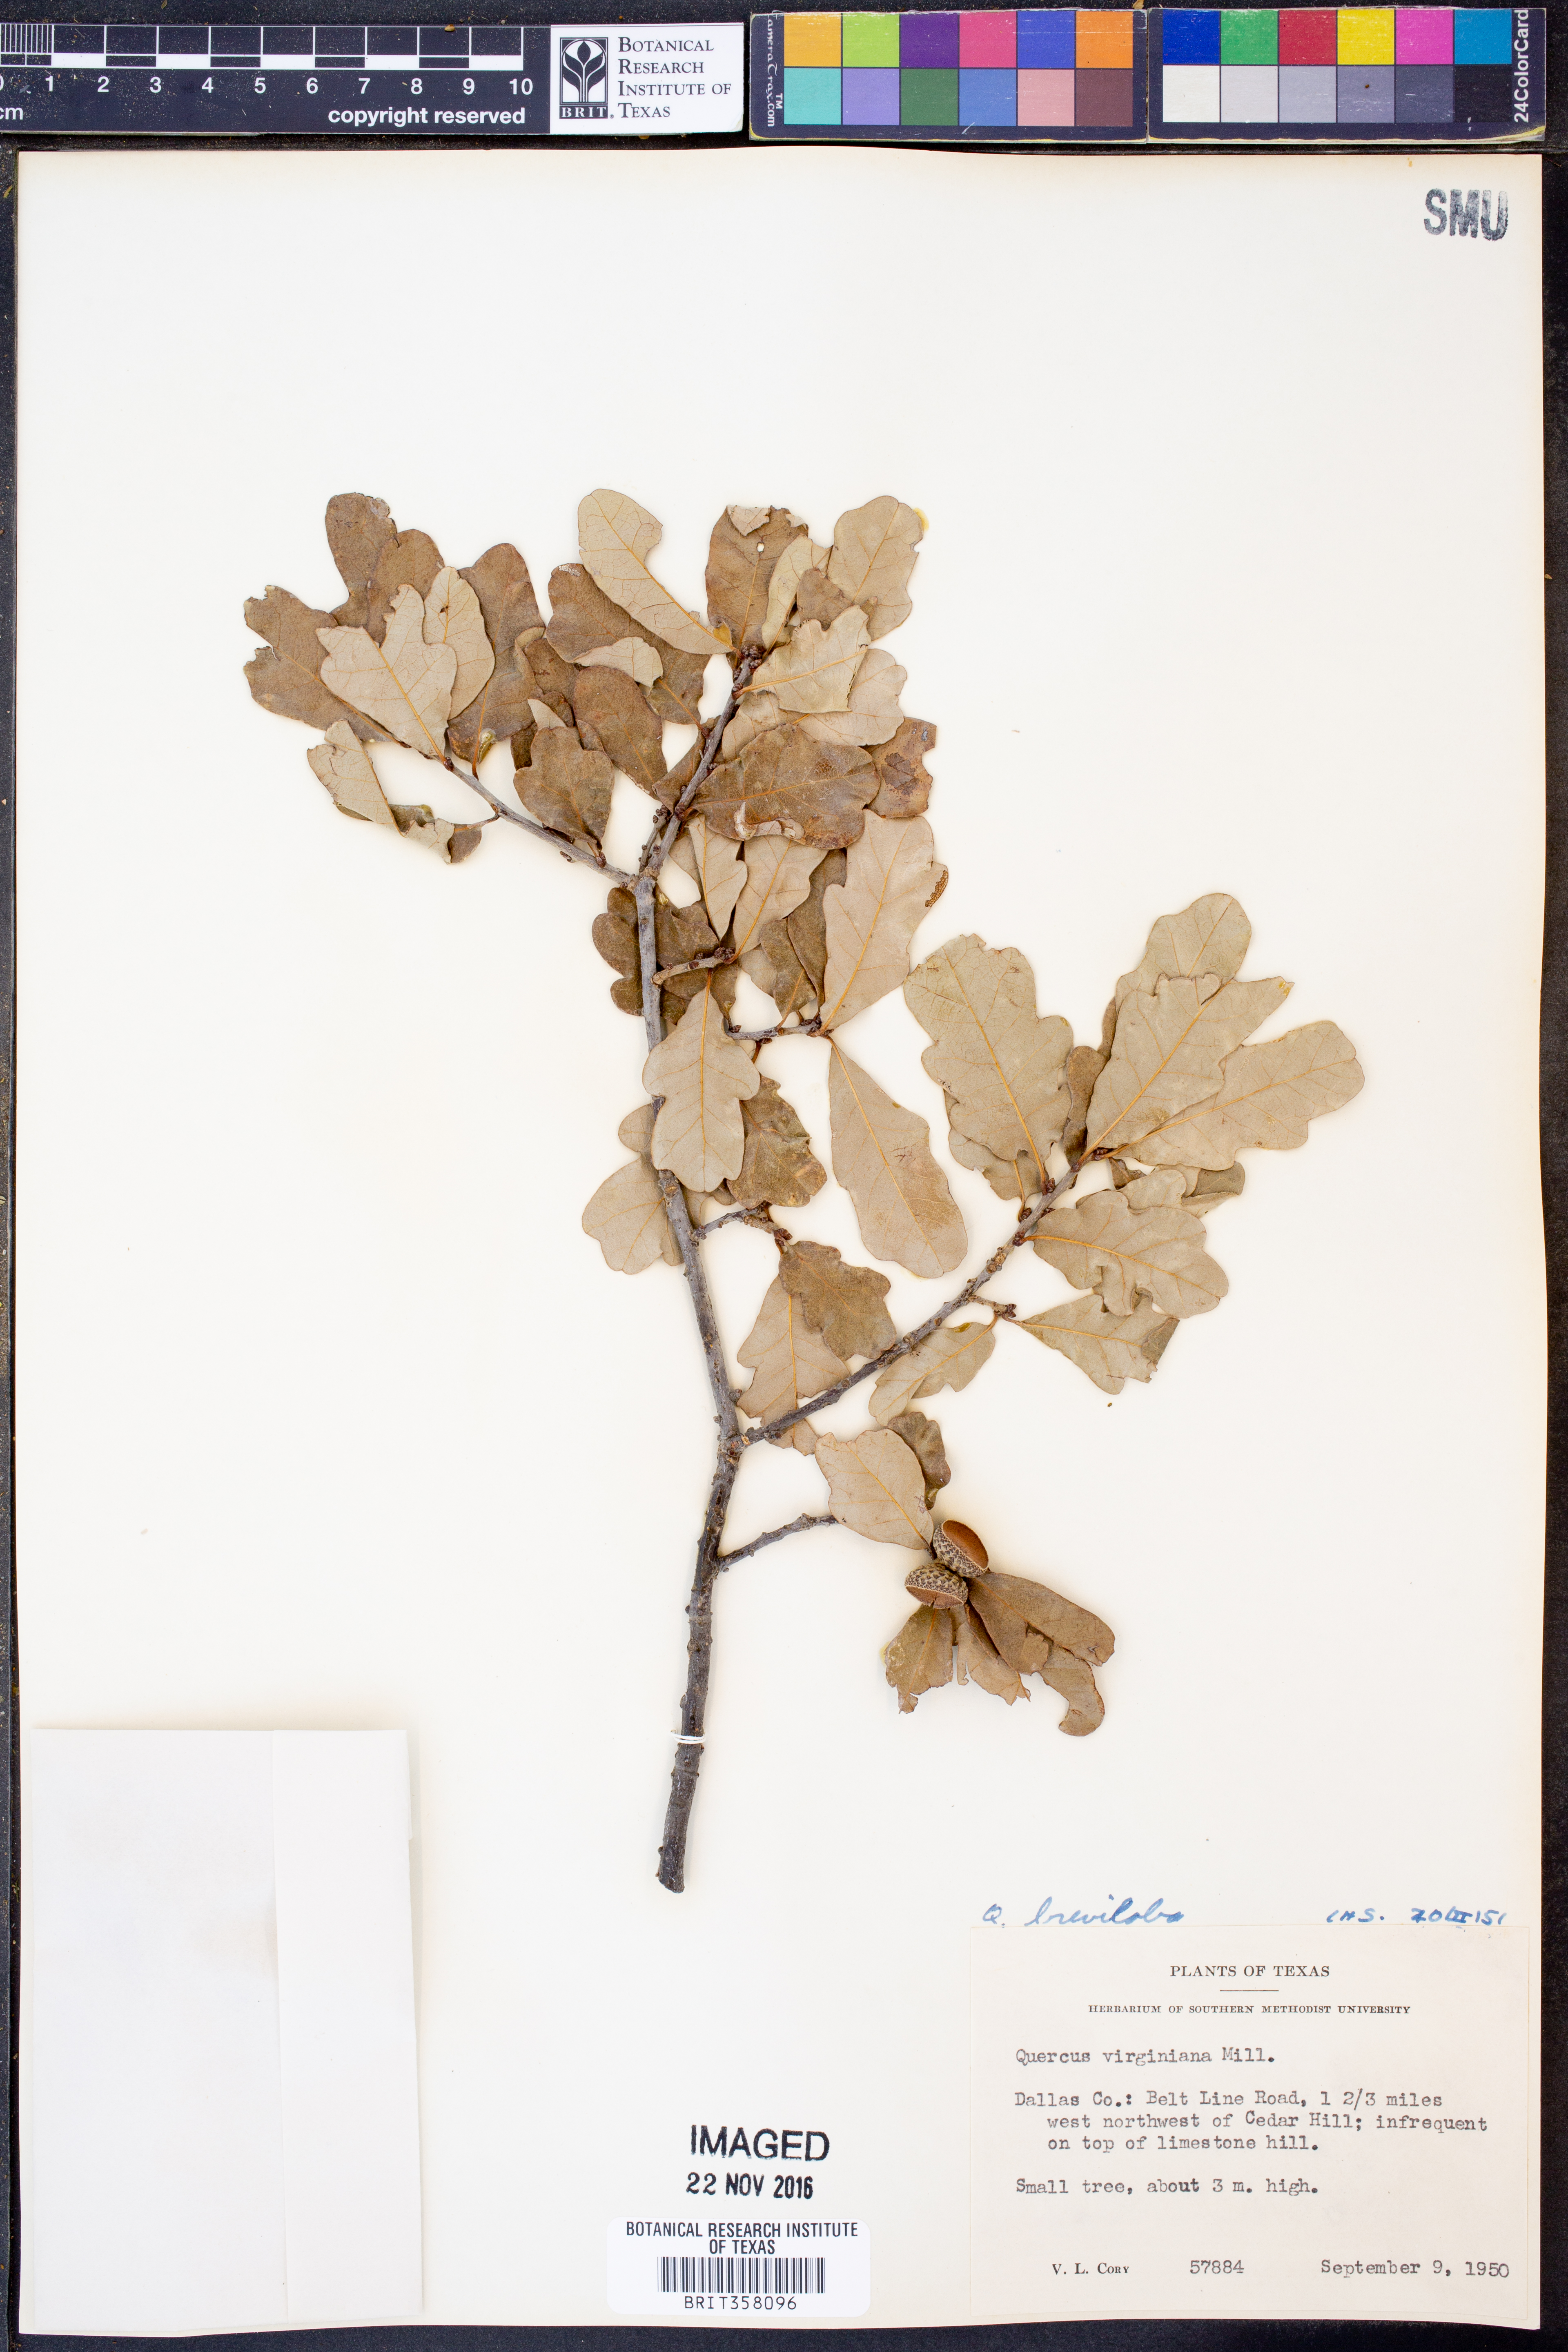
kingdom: Plantae
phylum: Tracheophyta
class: Magnoliopsida
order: Fagales
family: Fagaceae
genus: Quercus
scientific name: Quercus sinuata
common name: Durand oak
